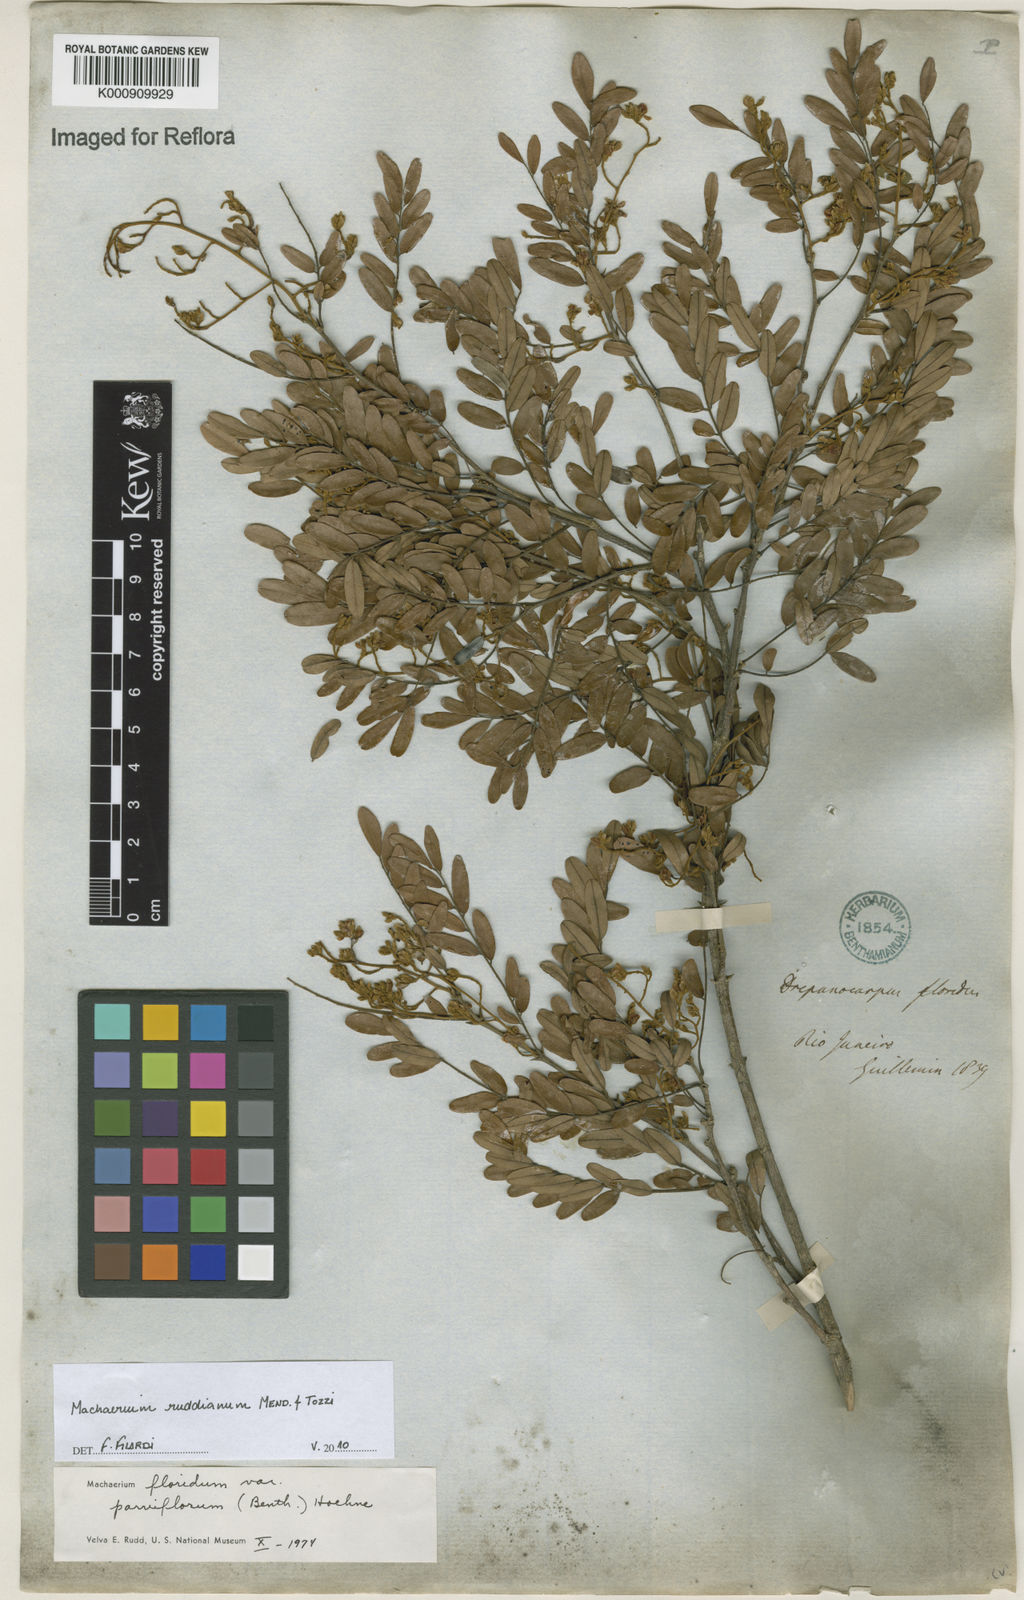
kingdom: Plantae
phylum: Tracheophyta
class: Magnoliopsida
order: Fabales
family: Fabaceae
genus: Machaerium
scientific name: Machaerium
